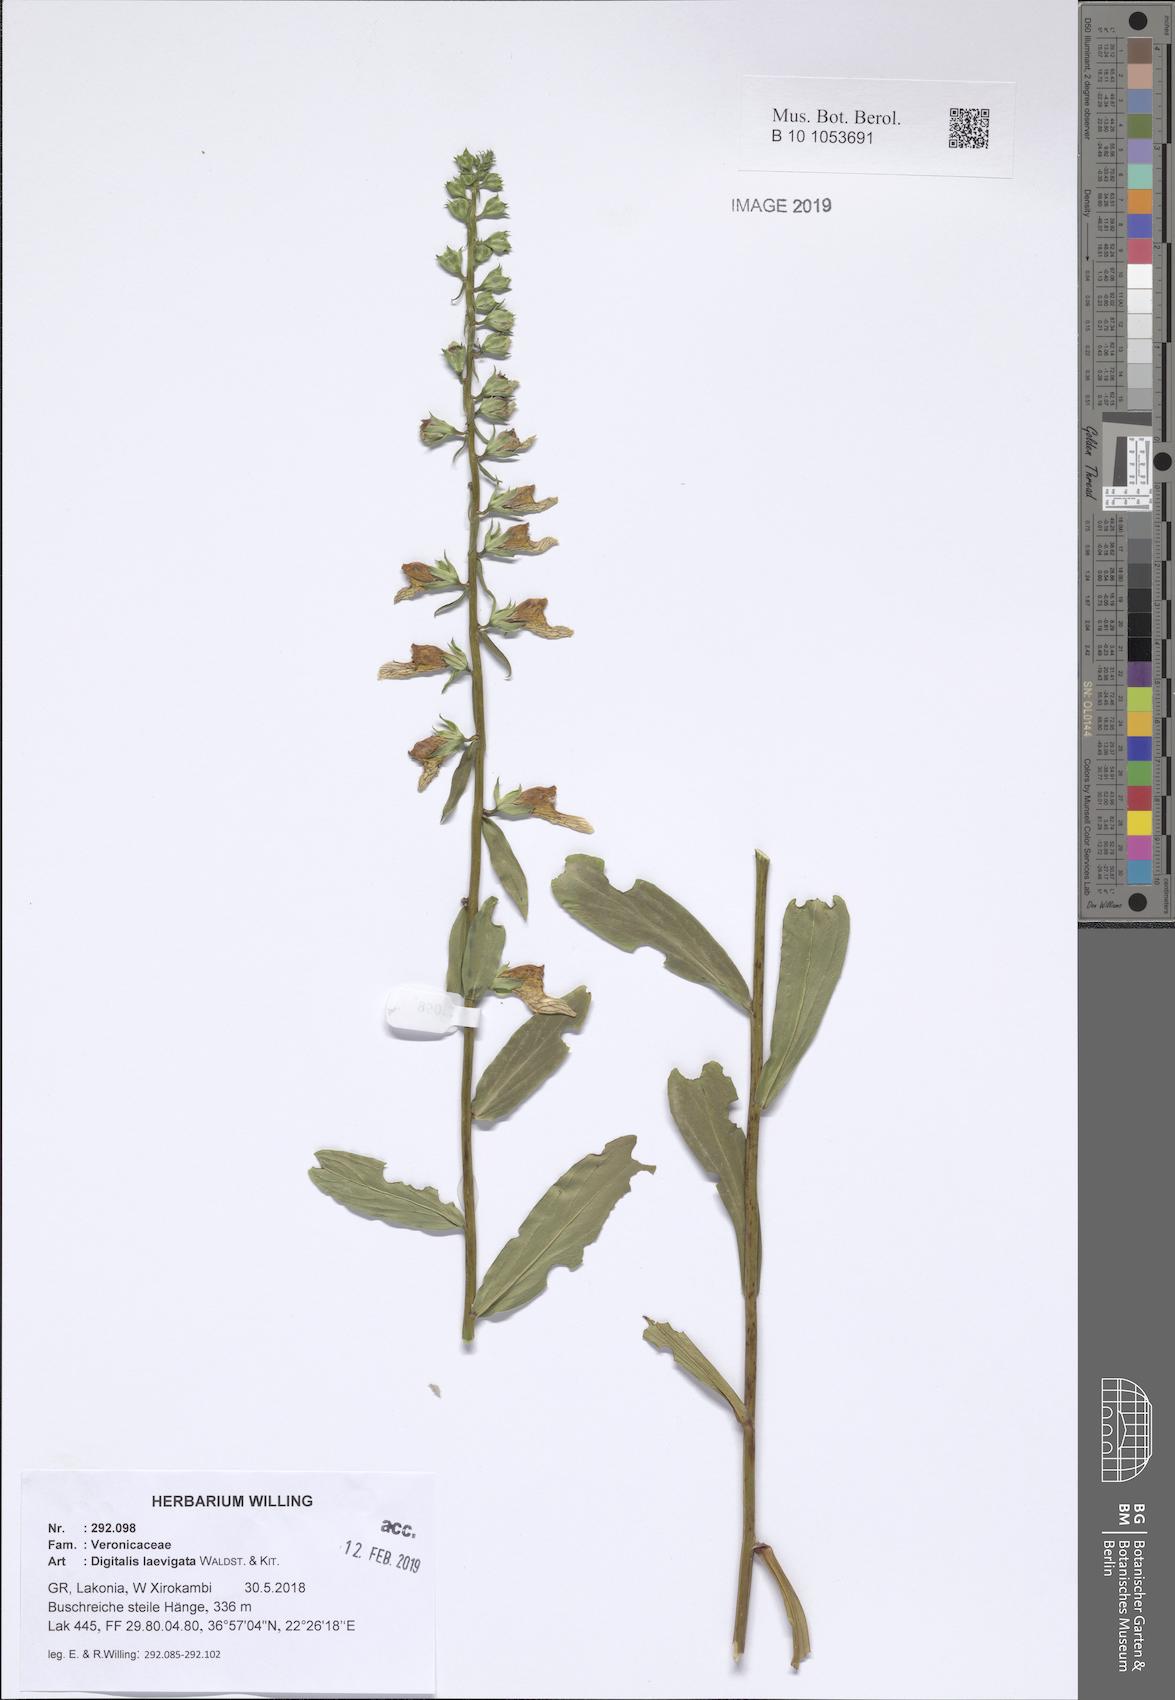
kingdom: Plantae
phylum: Tracheophyta
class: Magnoliopsida
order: Lamiales
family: Plantaginaceae
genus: Digitalis
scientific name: Digitalis laevigata
